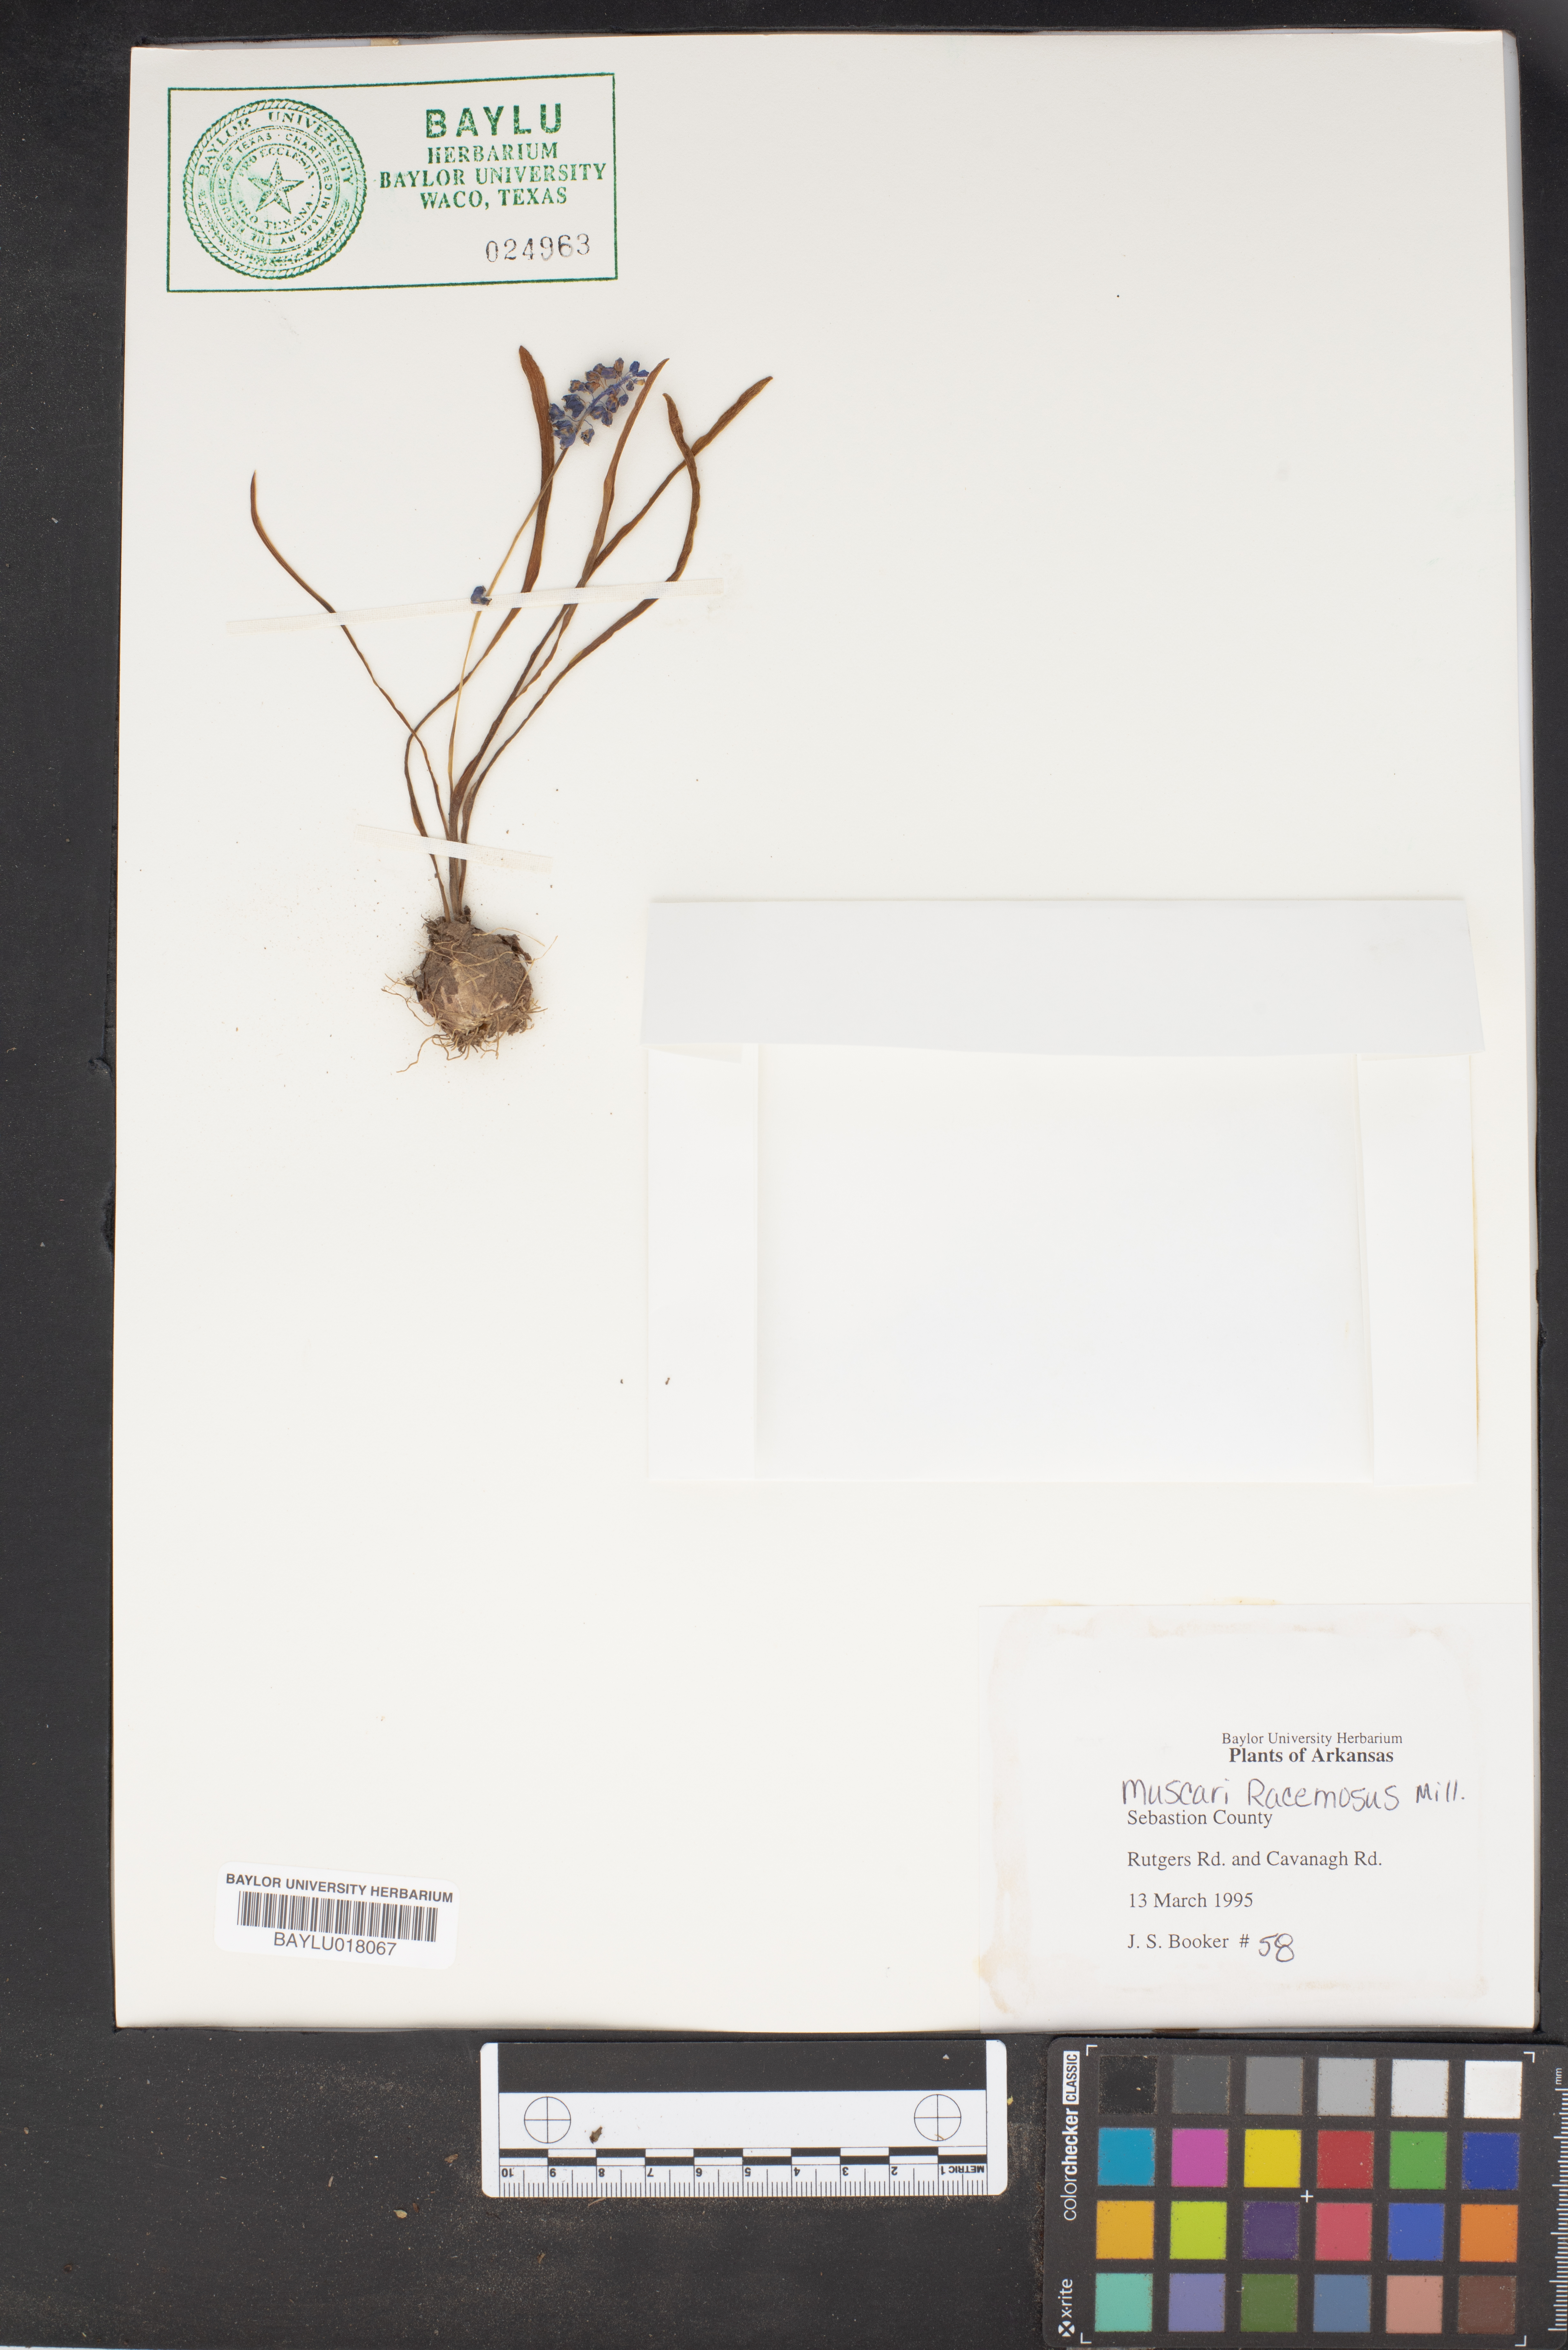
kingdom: Plantae
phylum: Tracheophyta
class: Liliopsida
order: Asparagales
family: Asparagaceae
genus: Muscarimia
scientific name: Muscarimia muscari
